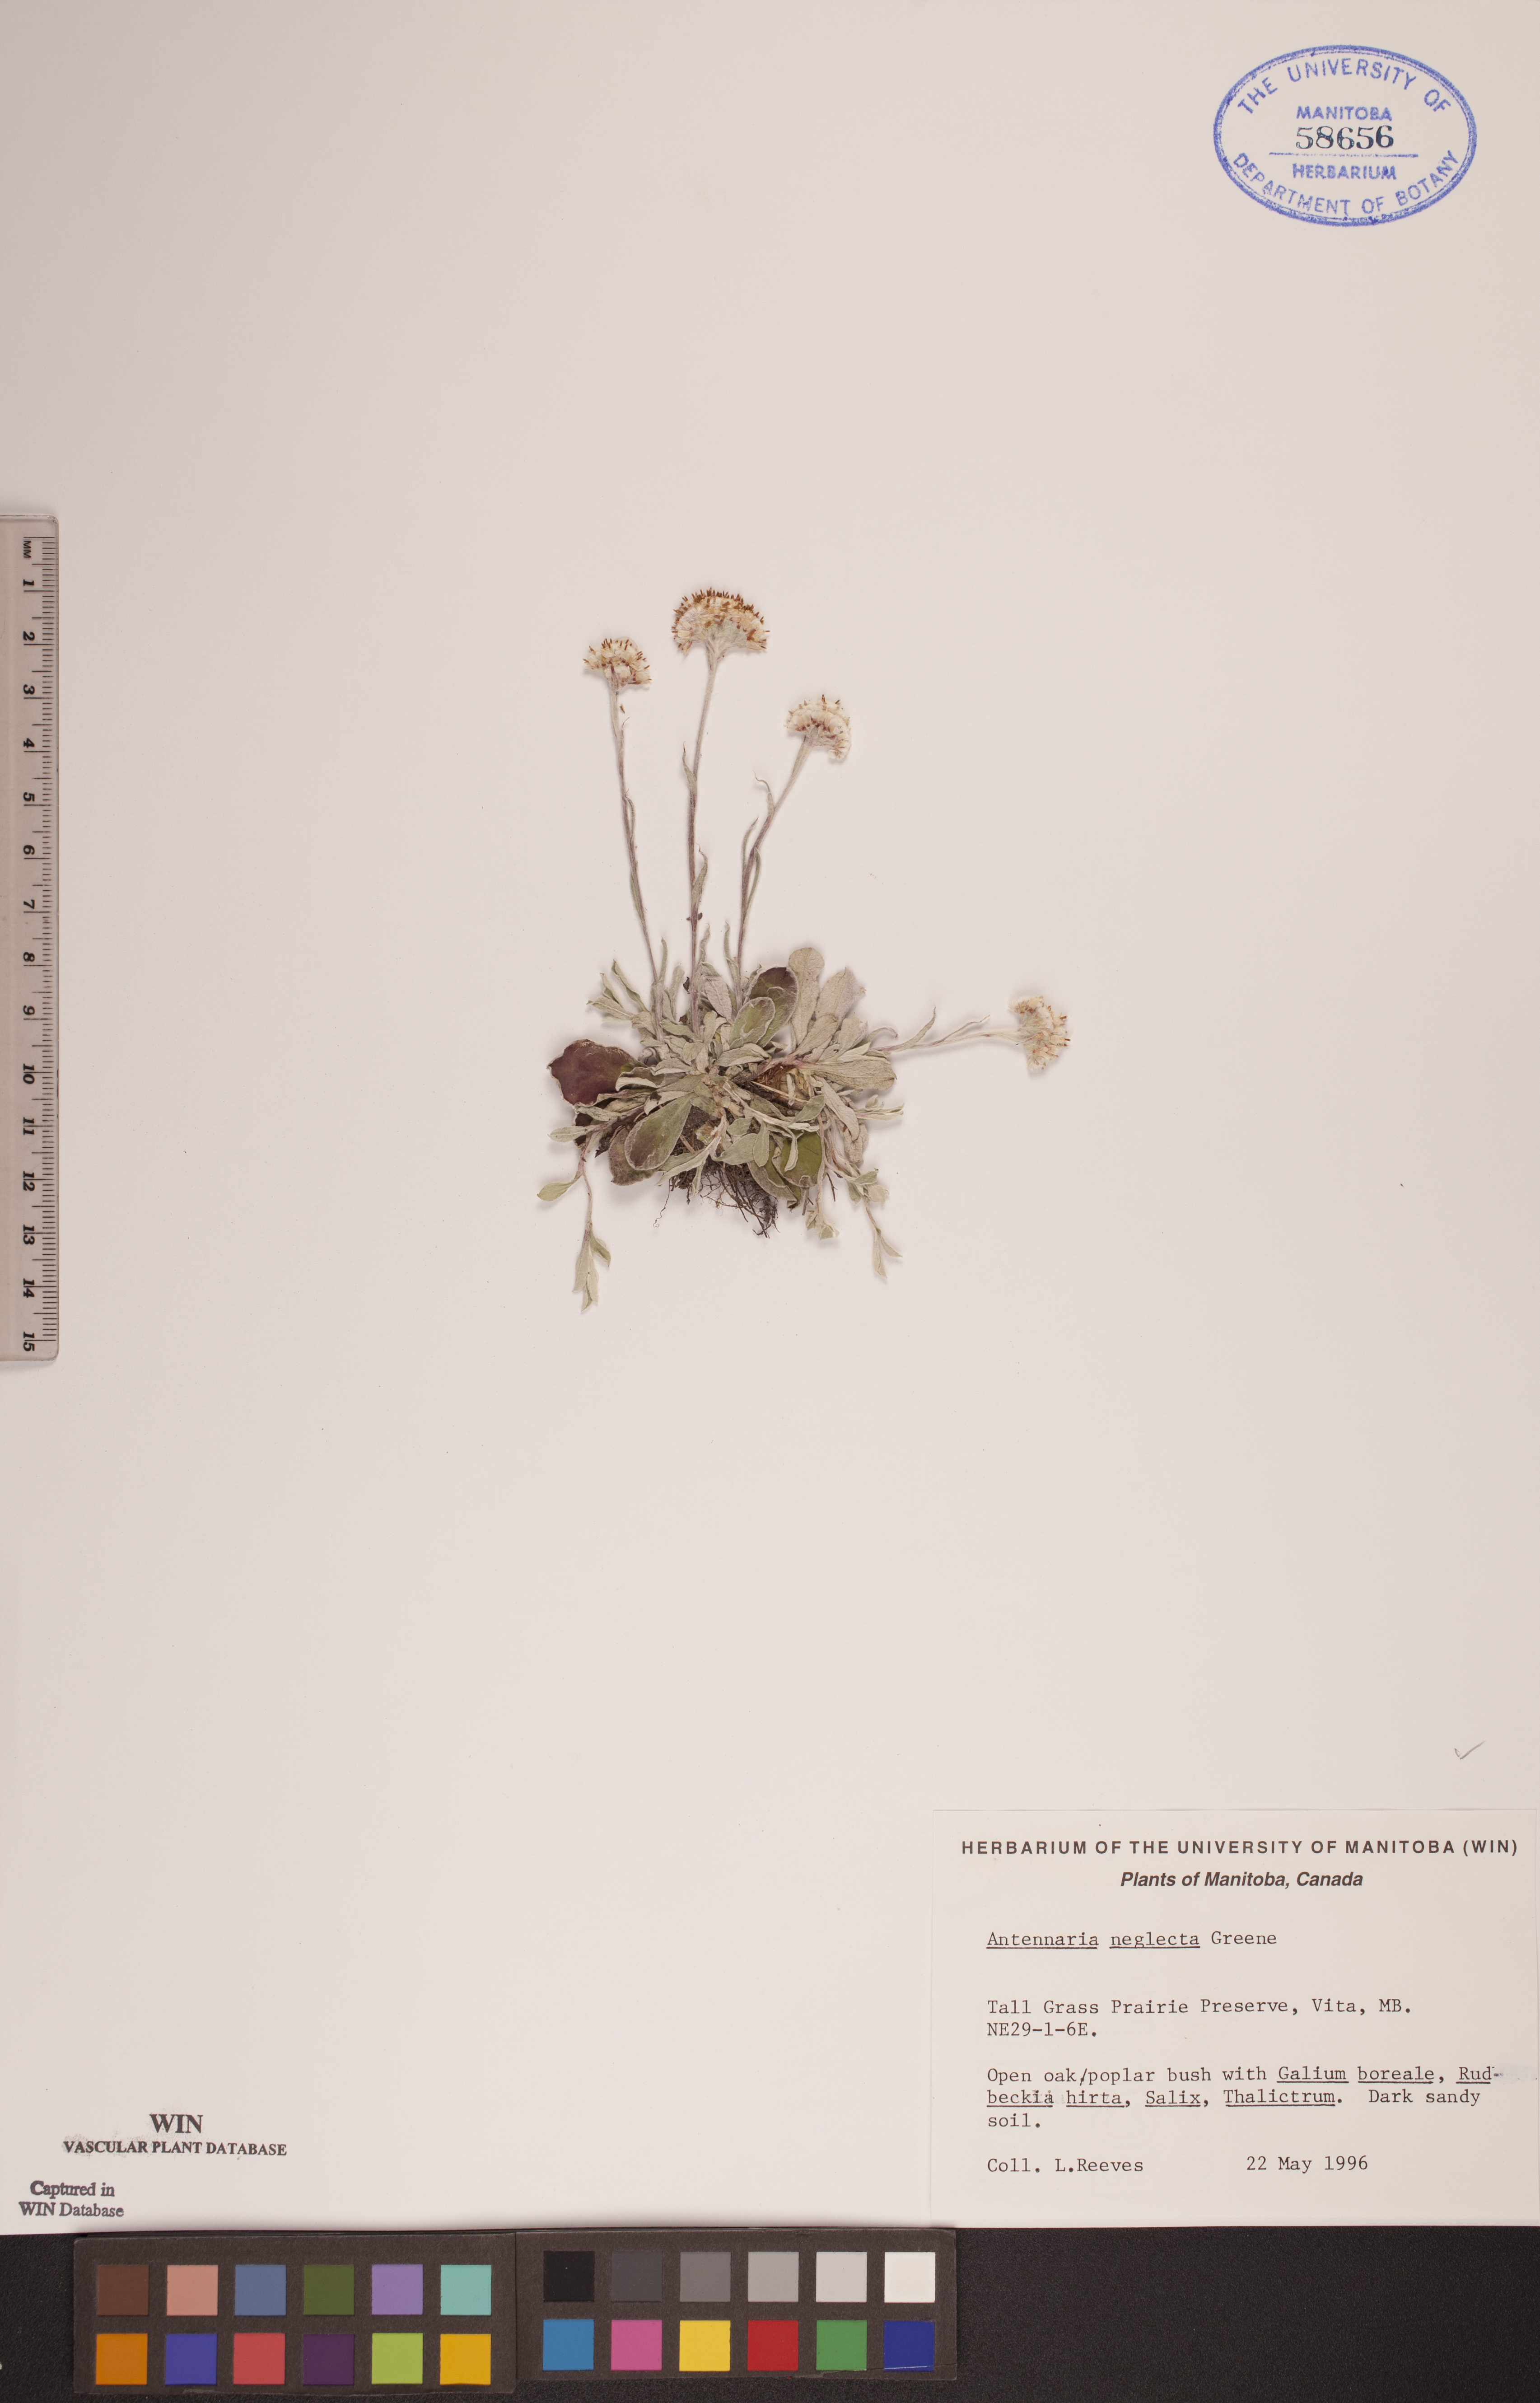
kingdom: Plantae
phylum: Tracheophyta
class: Magnoliopsida
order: Asterales
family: Asteraceae
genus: Antennaria
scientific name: Antennaria neglecta
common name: Field pussytoes
